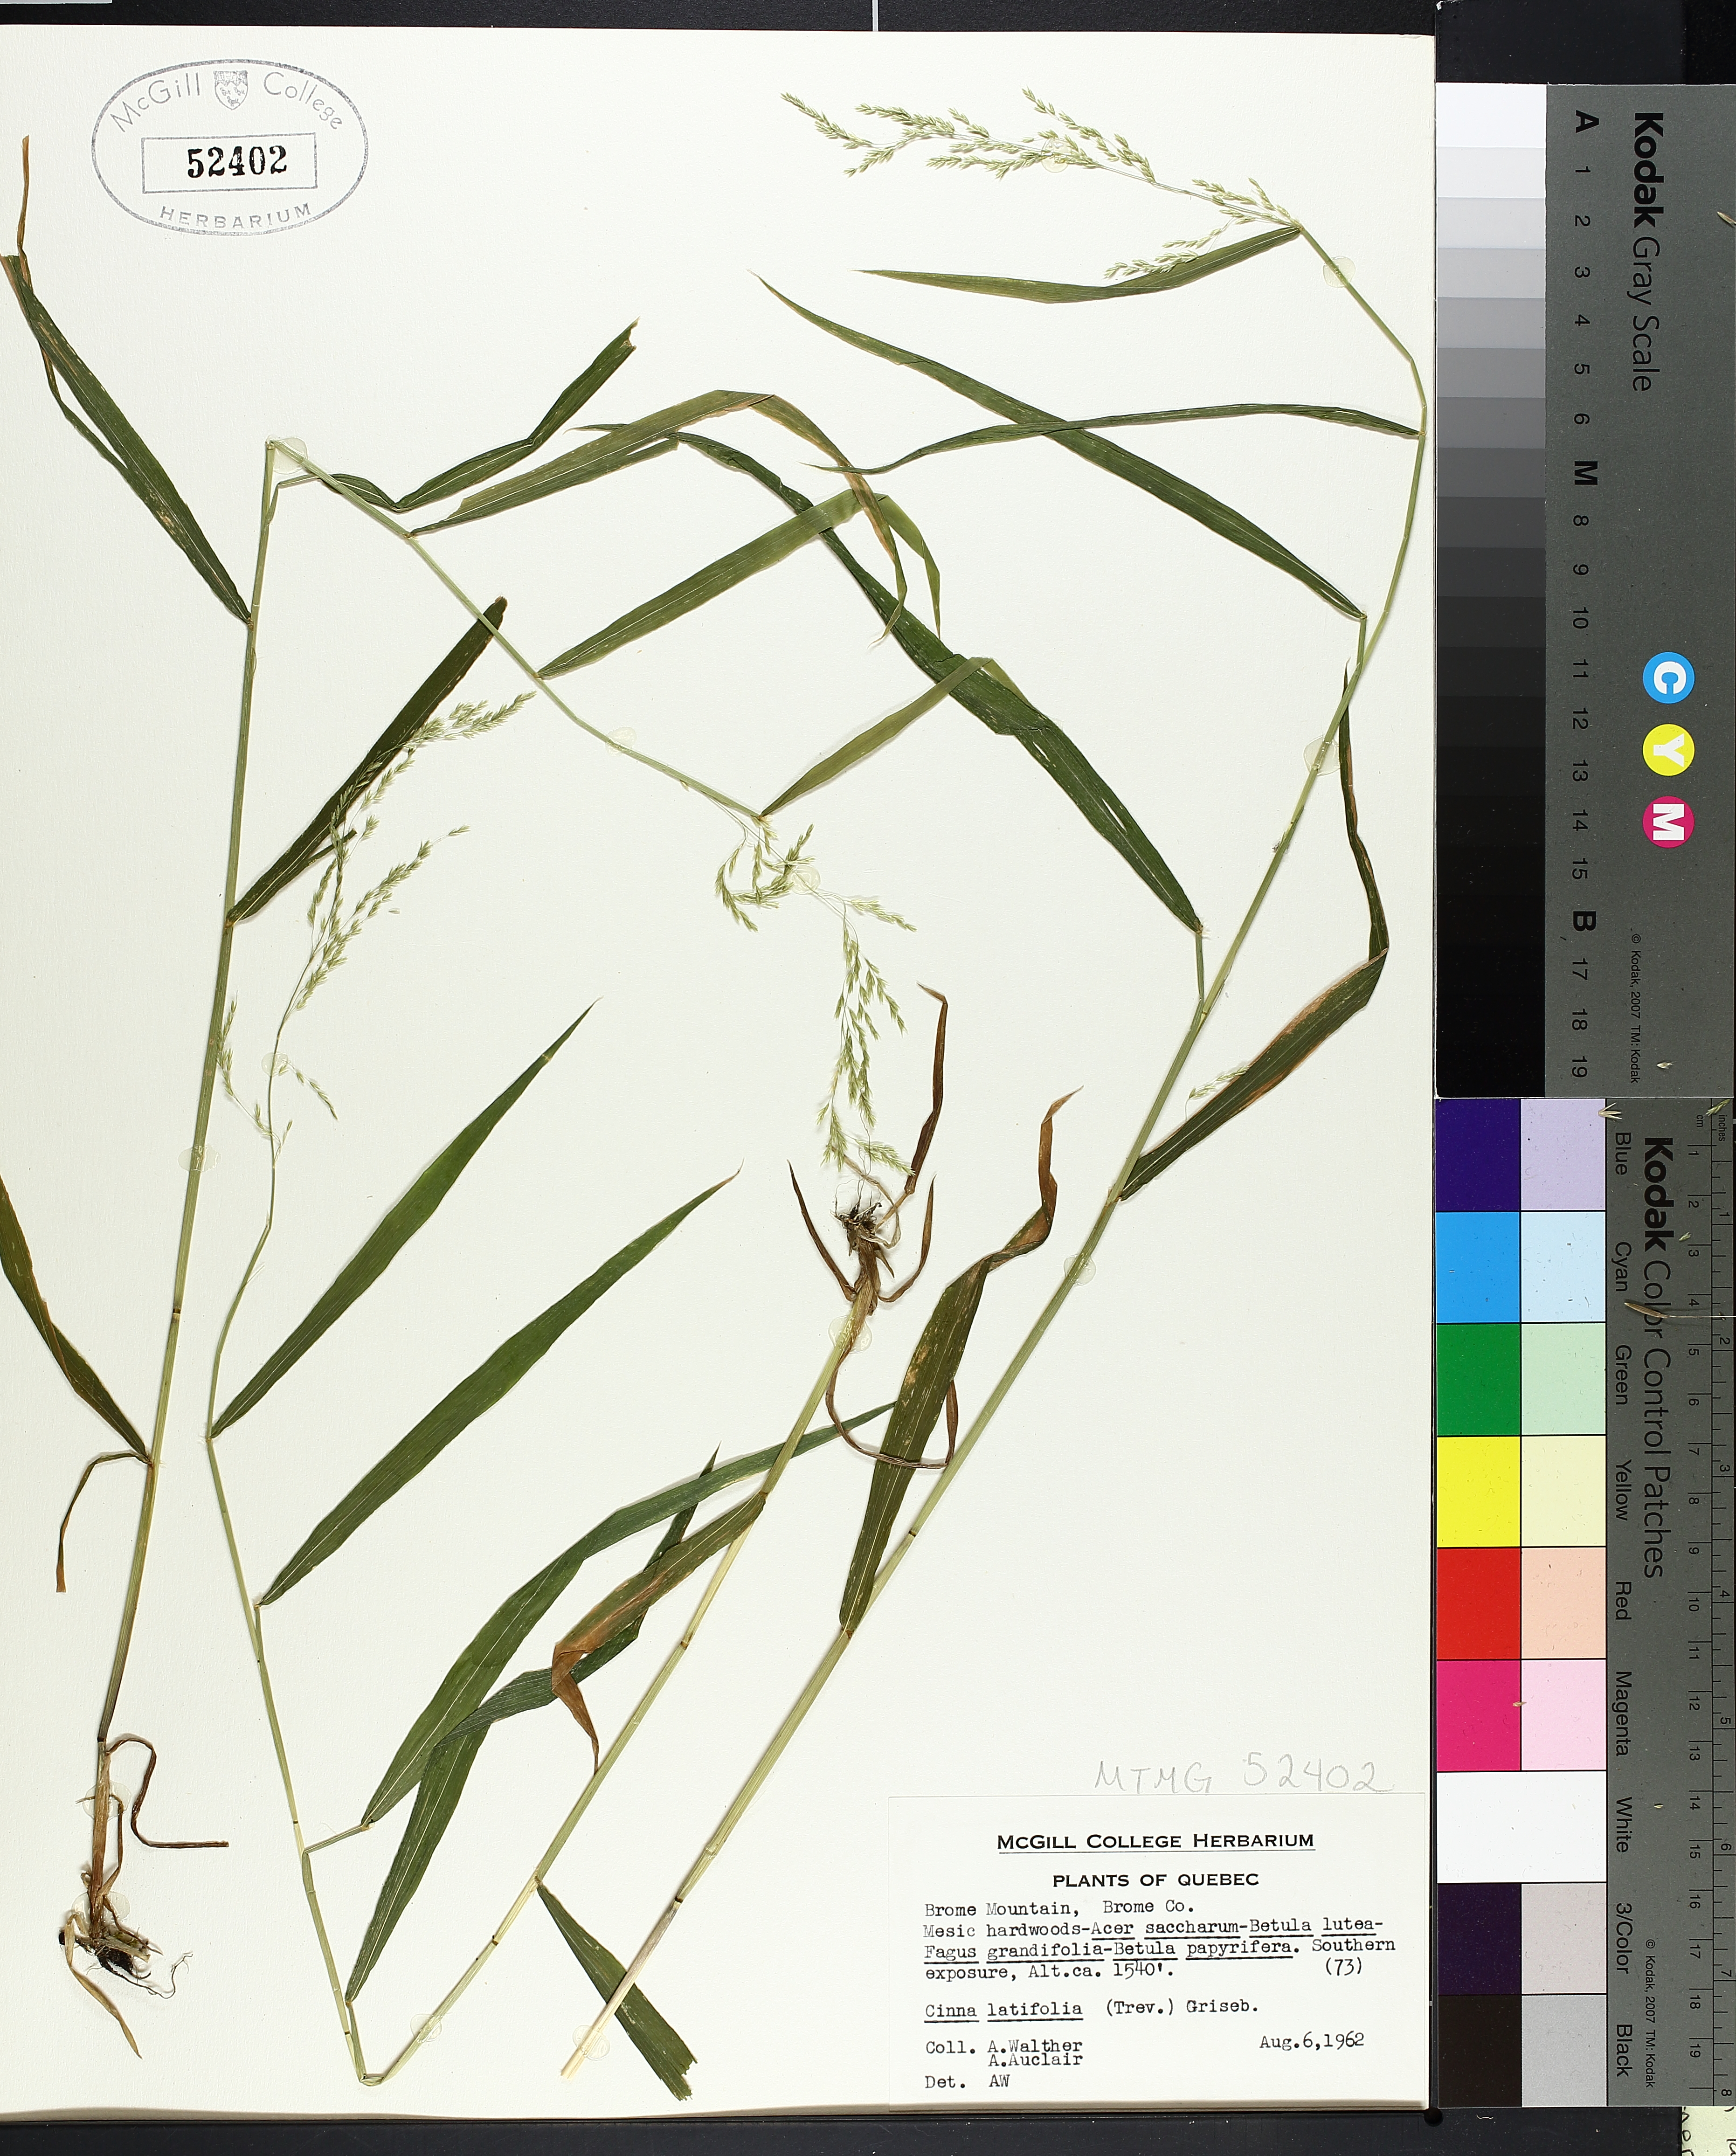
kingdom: Plantae
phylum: Tracheophyta
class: Liliopsida
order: Poales
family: Poaceae
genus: Cinna
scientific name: Cinna latifolia
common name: Drooping woodreed
